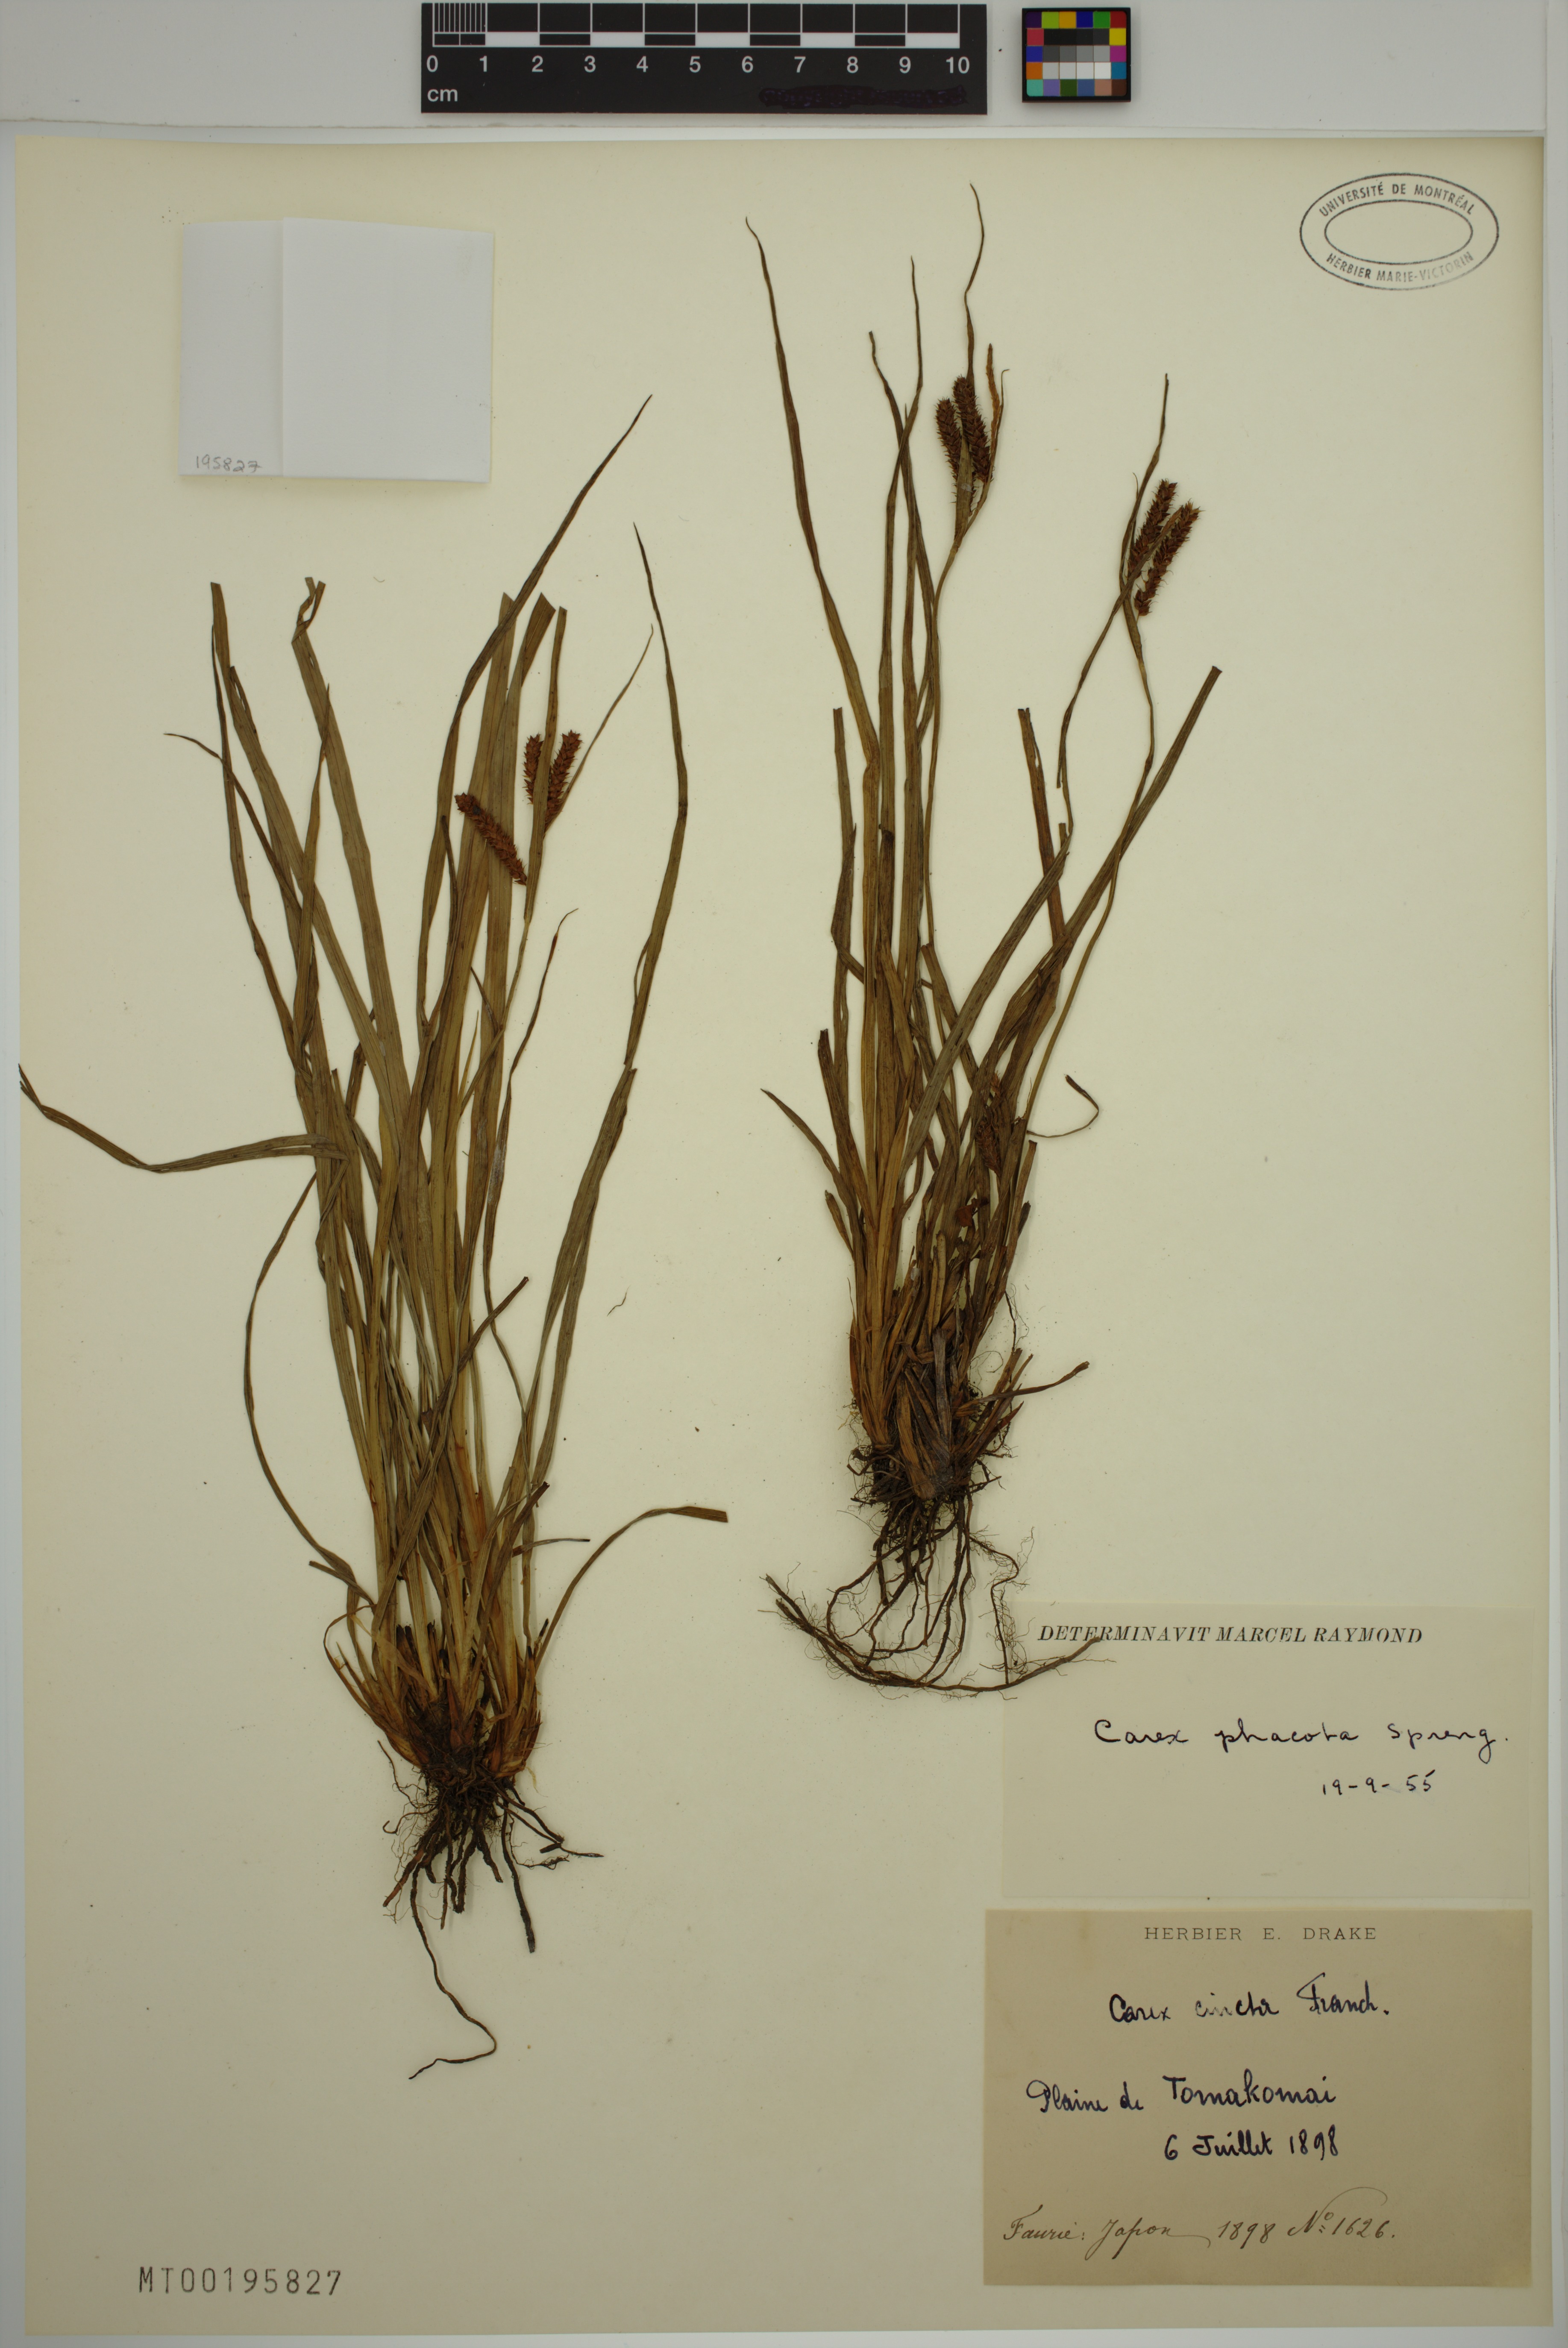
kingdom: Plantae
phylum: Tracheophyta
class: Liliopsida
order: Poales
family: Cyperaceae
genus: Carex
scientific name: Carex phacota
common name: Lakeshore sedge
